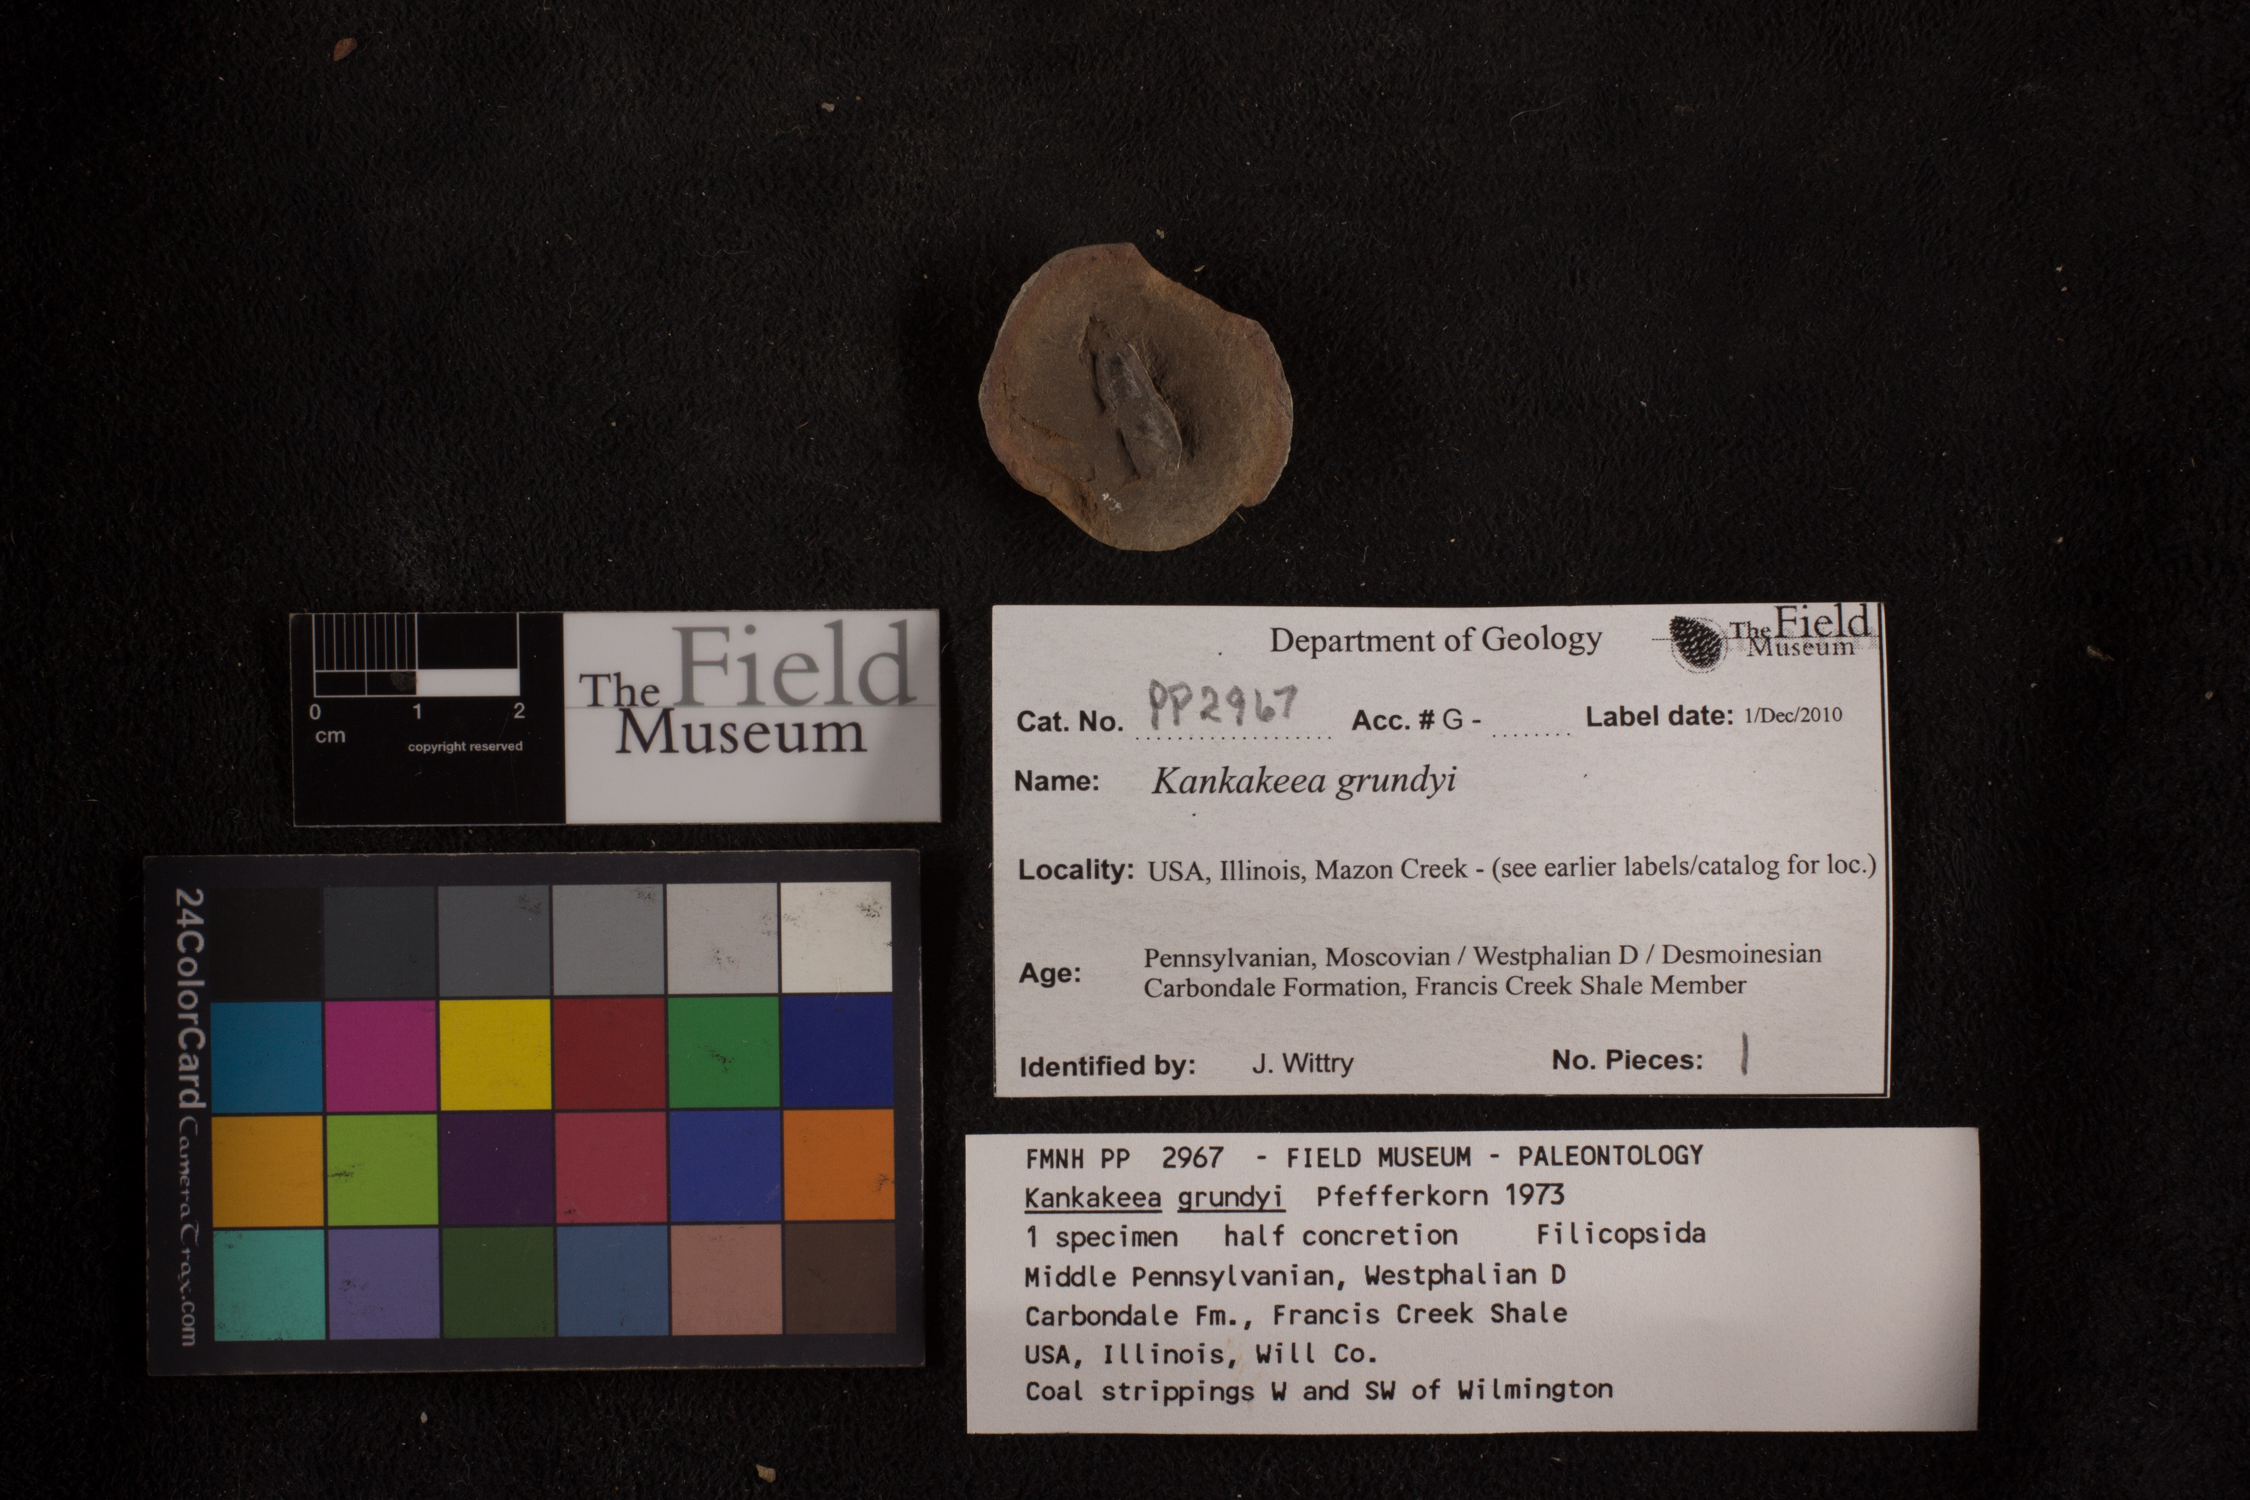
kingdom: Plantae
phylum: Tracheophyta
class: Polypodiopsida
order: Marattiales
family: Marattiaceae
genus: Kankakeea
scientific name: Kankakeea grundyi
